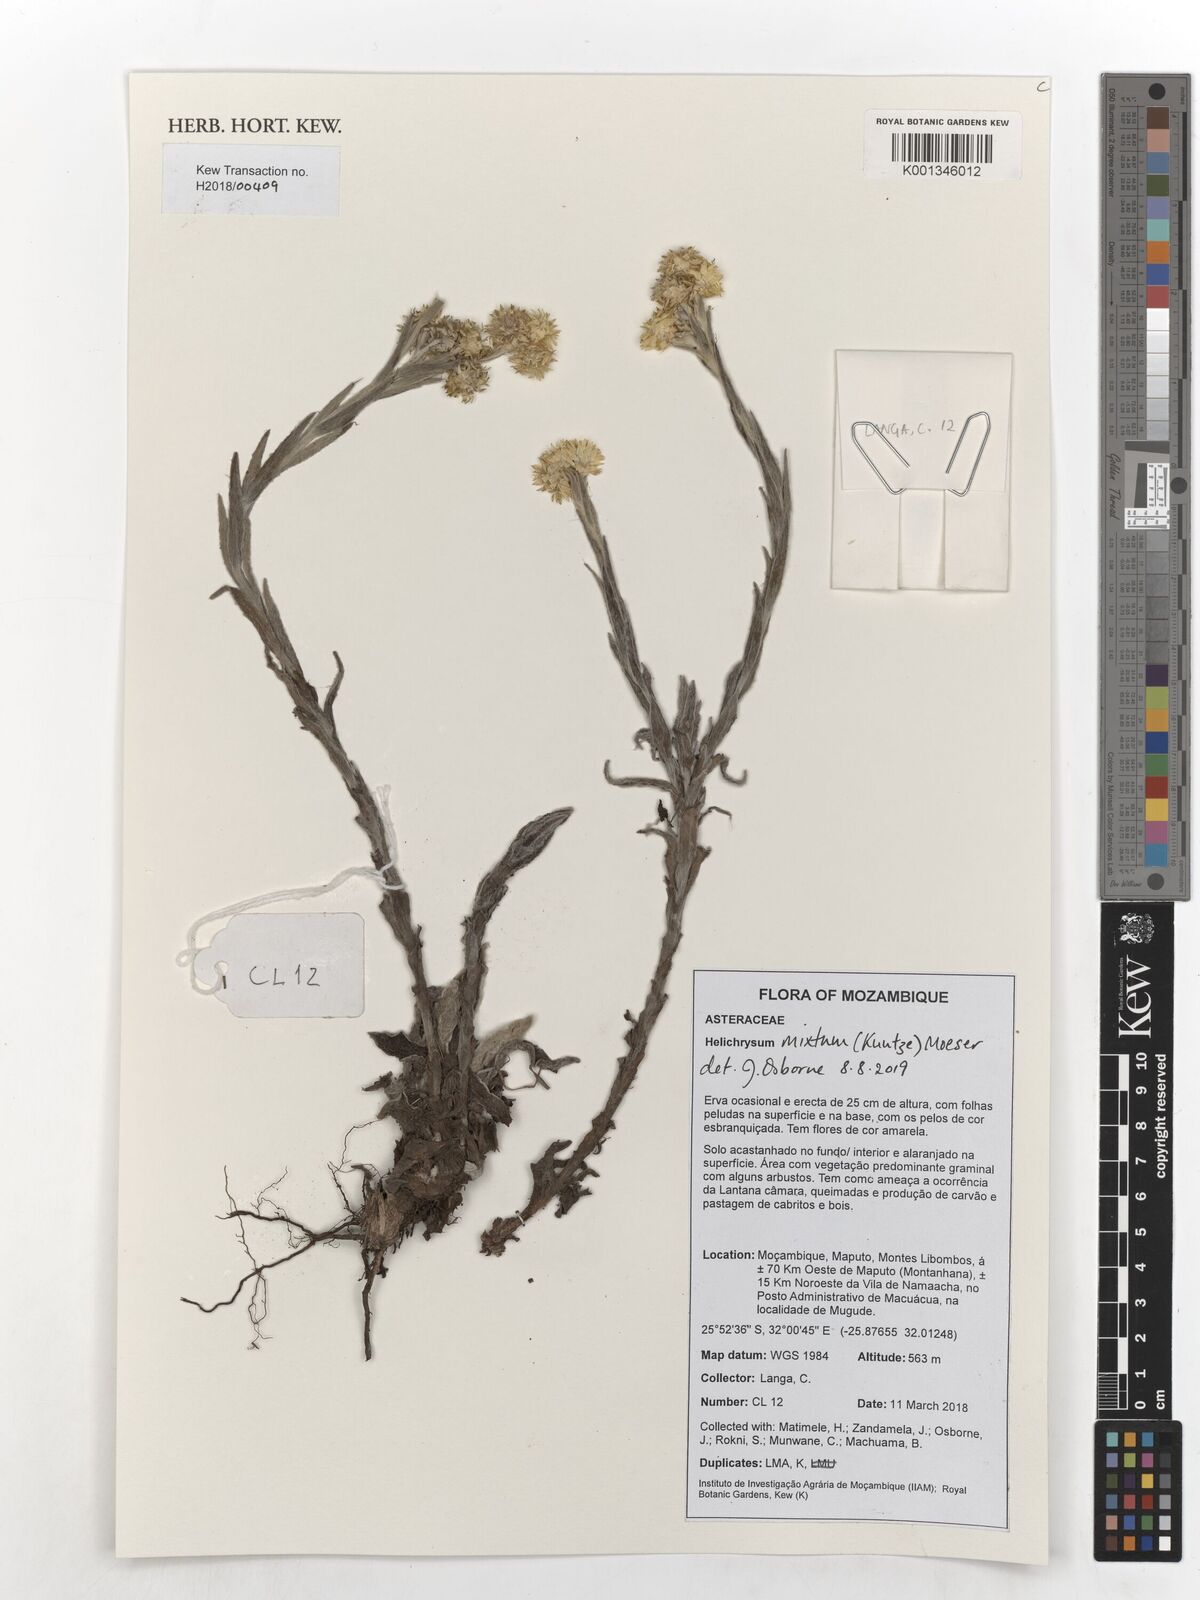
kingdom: Plantae
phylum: Tracheophyta
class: Magnoliopsida
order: Asterales
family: Asteraceae
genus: Helichrysum
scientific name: Helichrysum mixtum
